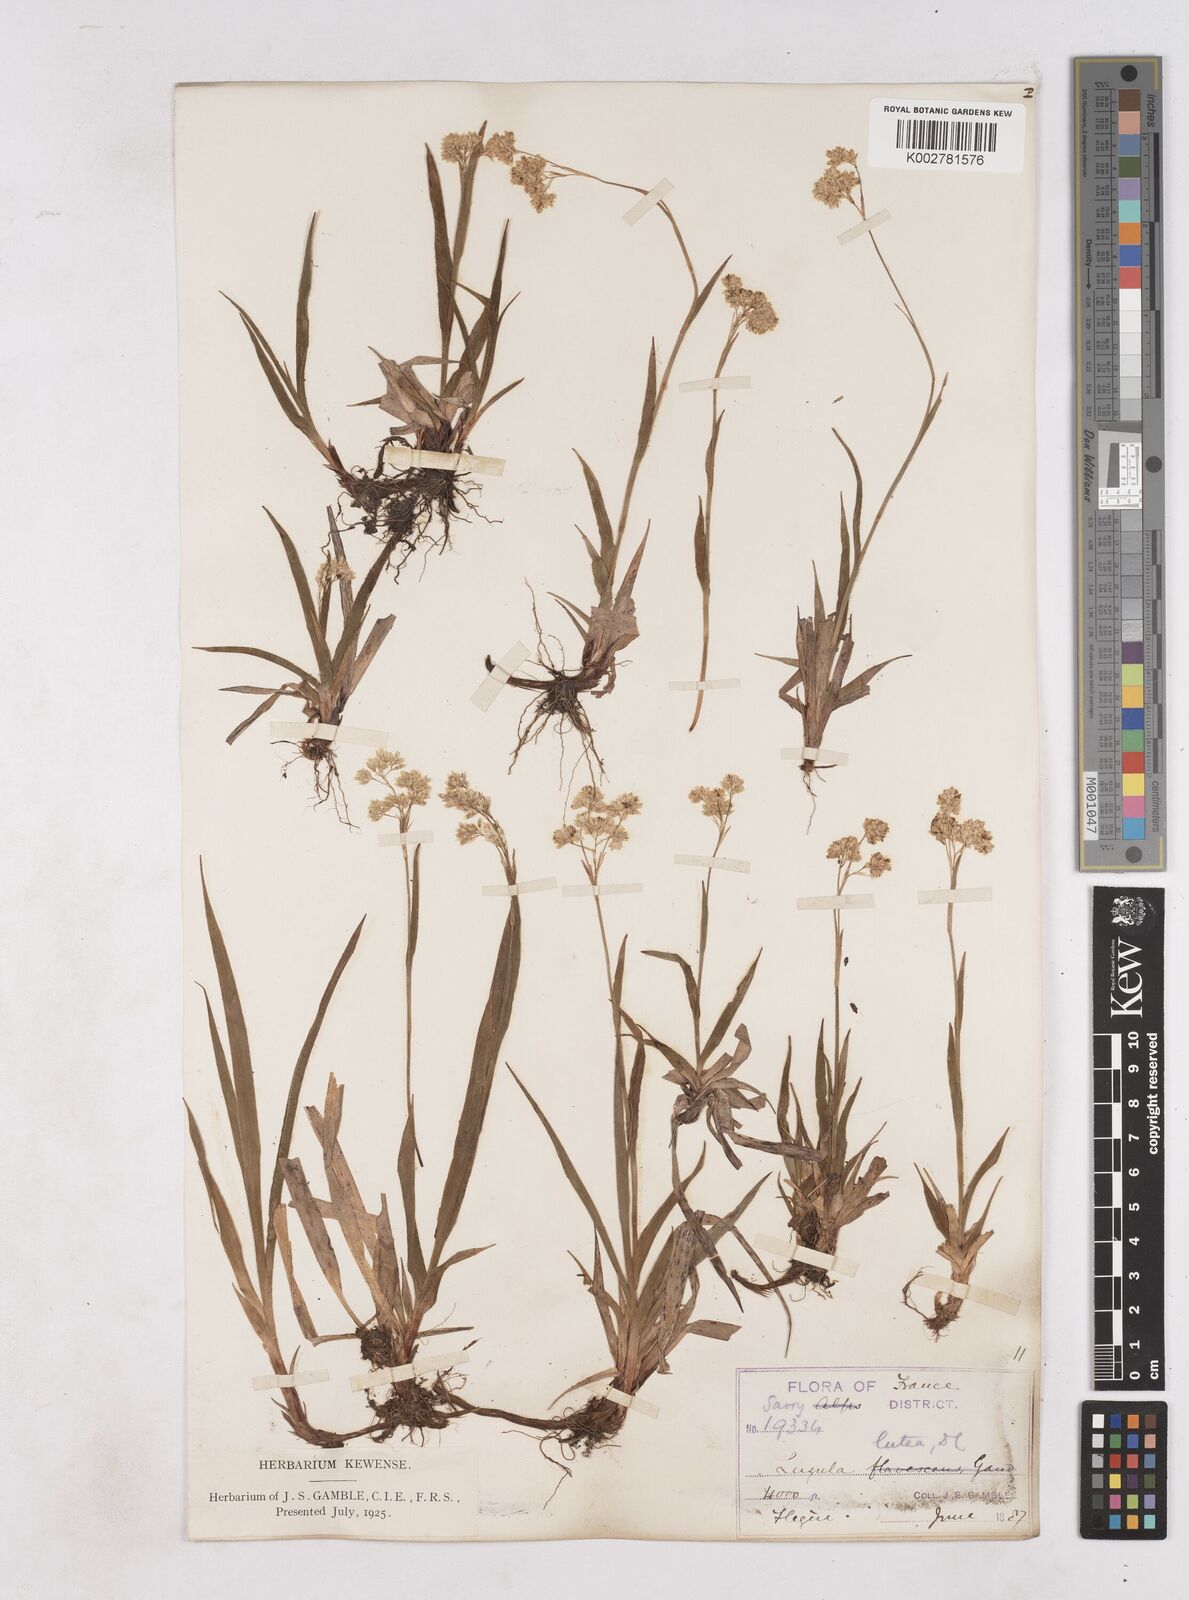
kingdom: Plantae
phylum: Tracheophyta
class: Liliopsida
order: Poales
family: Juncaceae
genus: Luzula
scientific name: Luzula lutea
